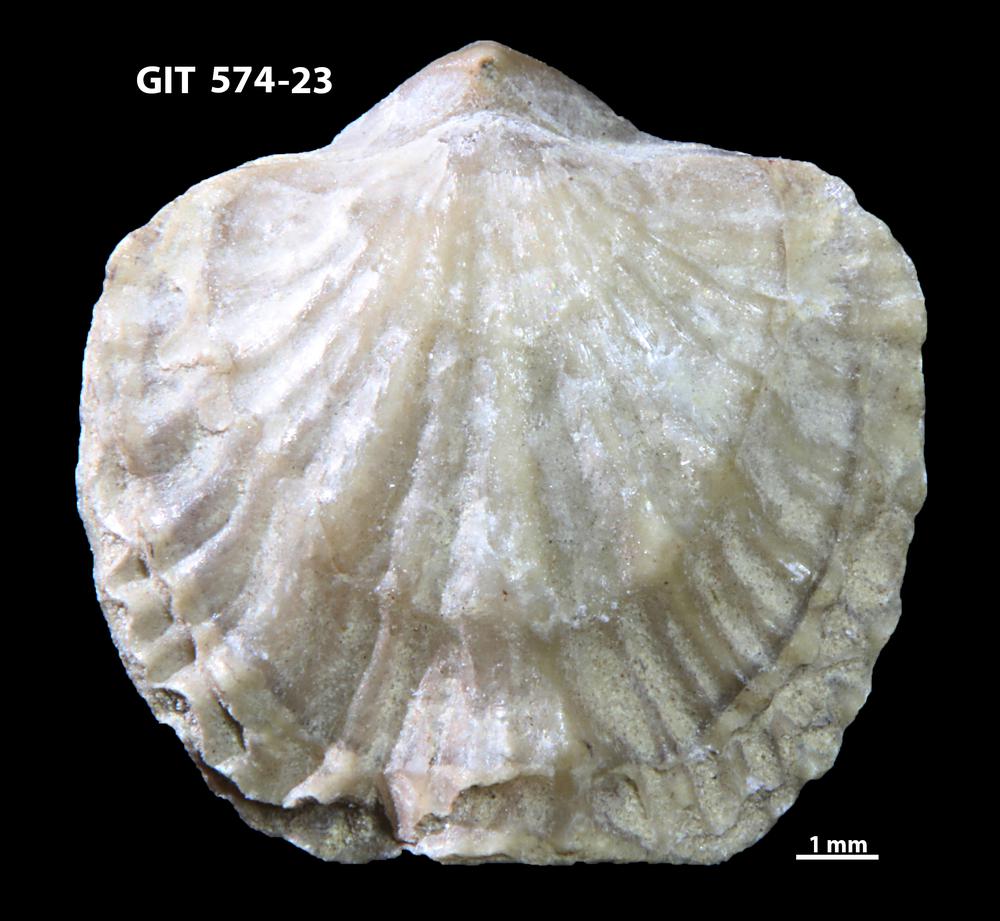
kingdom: Animalia
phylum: Brachiopoda
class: Rhynchonellata
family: Atrypinidae
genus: Eospirigerina
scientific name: Eospirigerina sulevi
